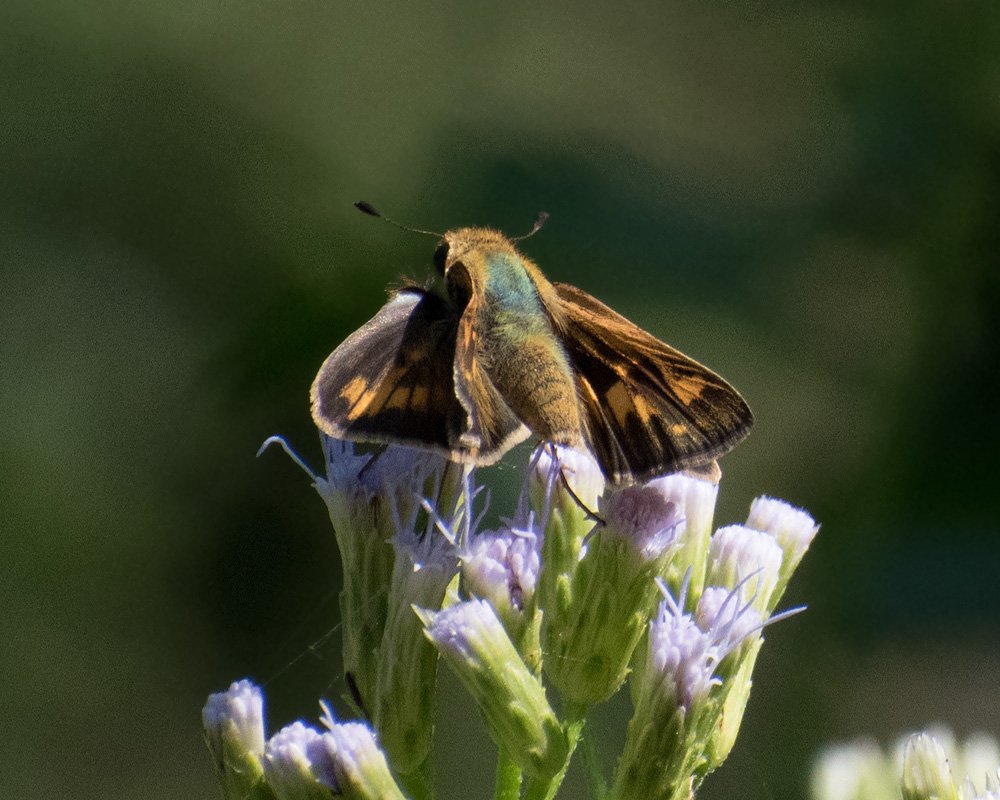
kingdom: Animalia
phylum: Arthropoda
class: Insecta
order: Lepidoptera
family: Hesperiidae
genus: Hylephila
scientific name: Hylephila phyleus
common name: Fiery Skipper
